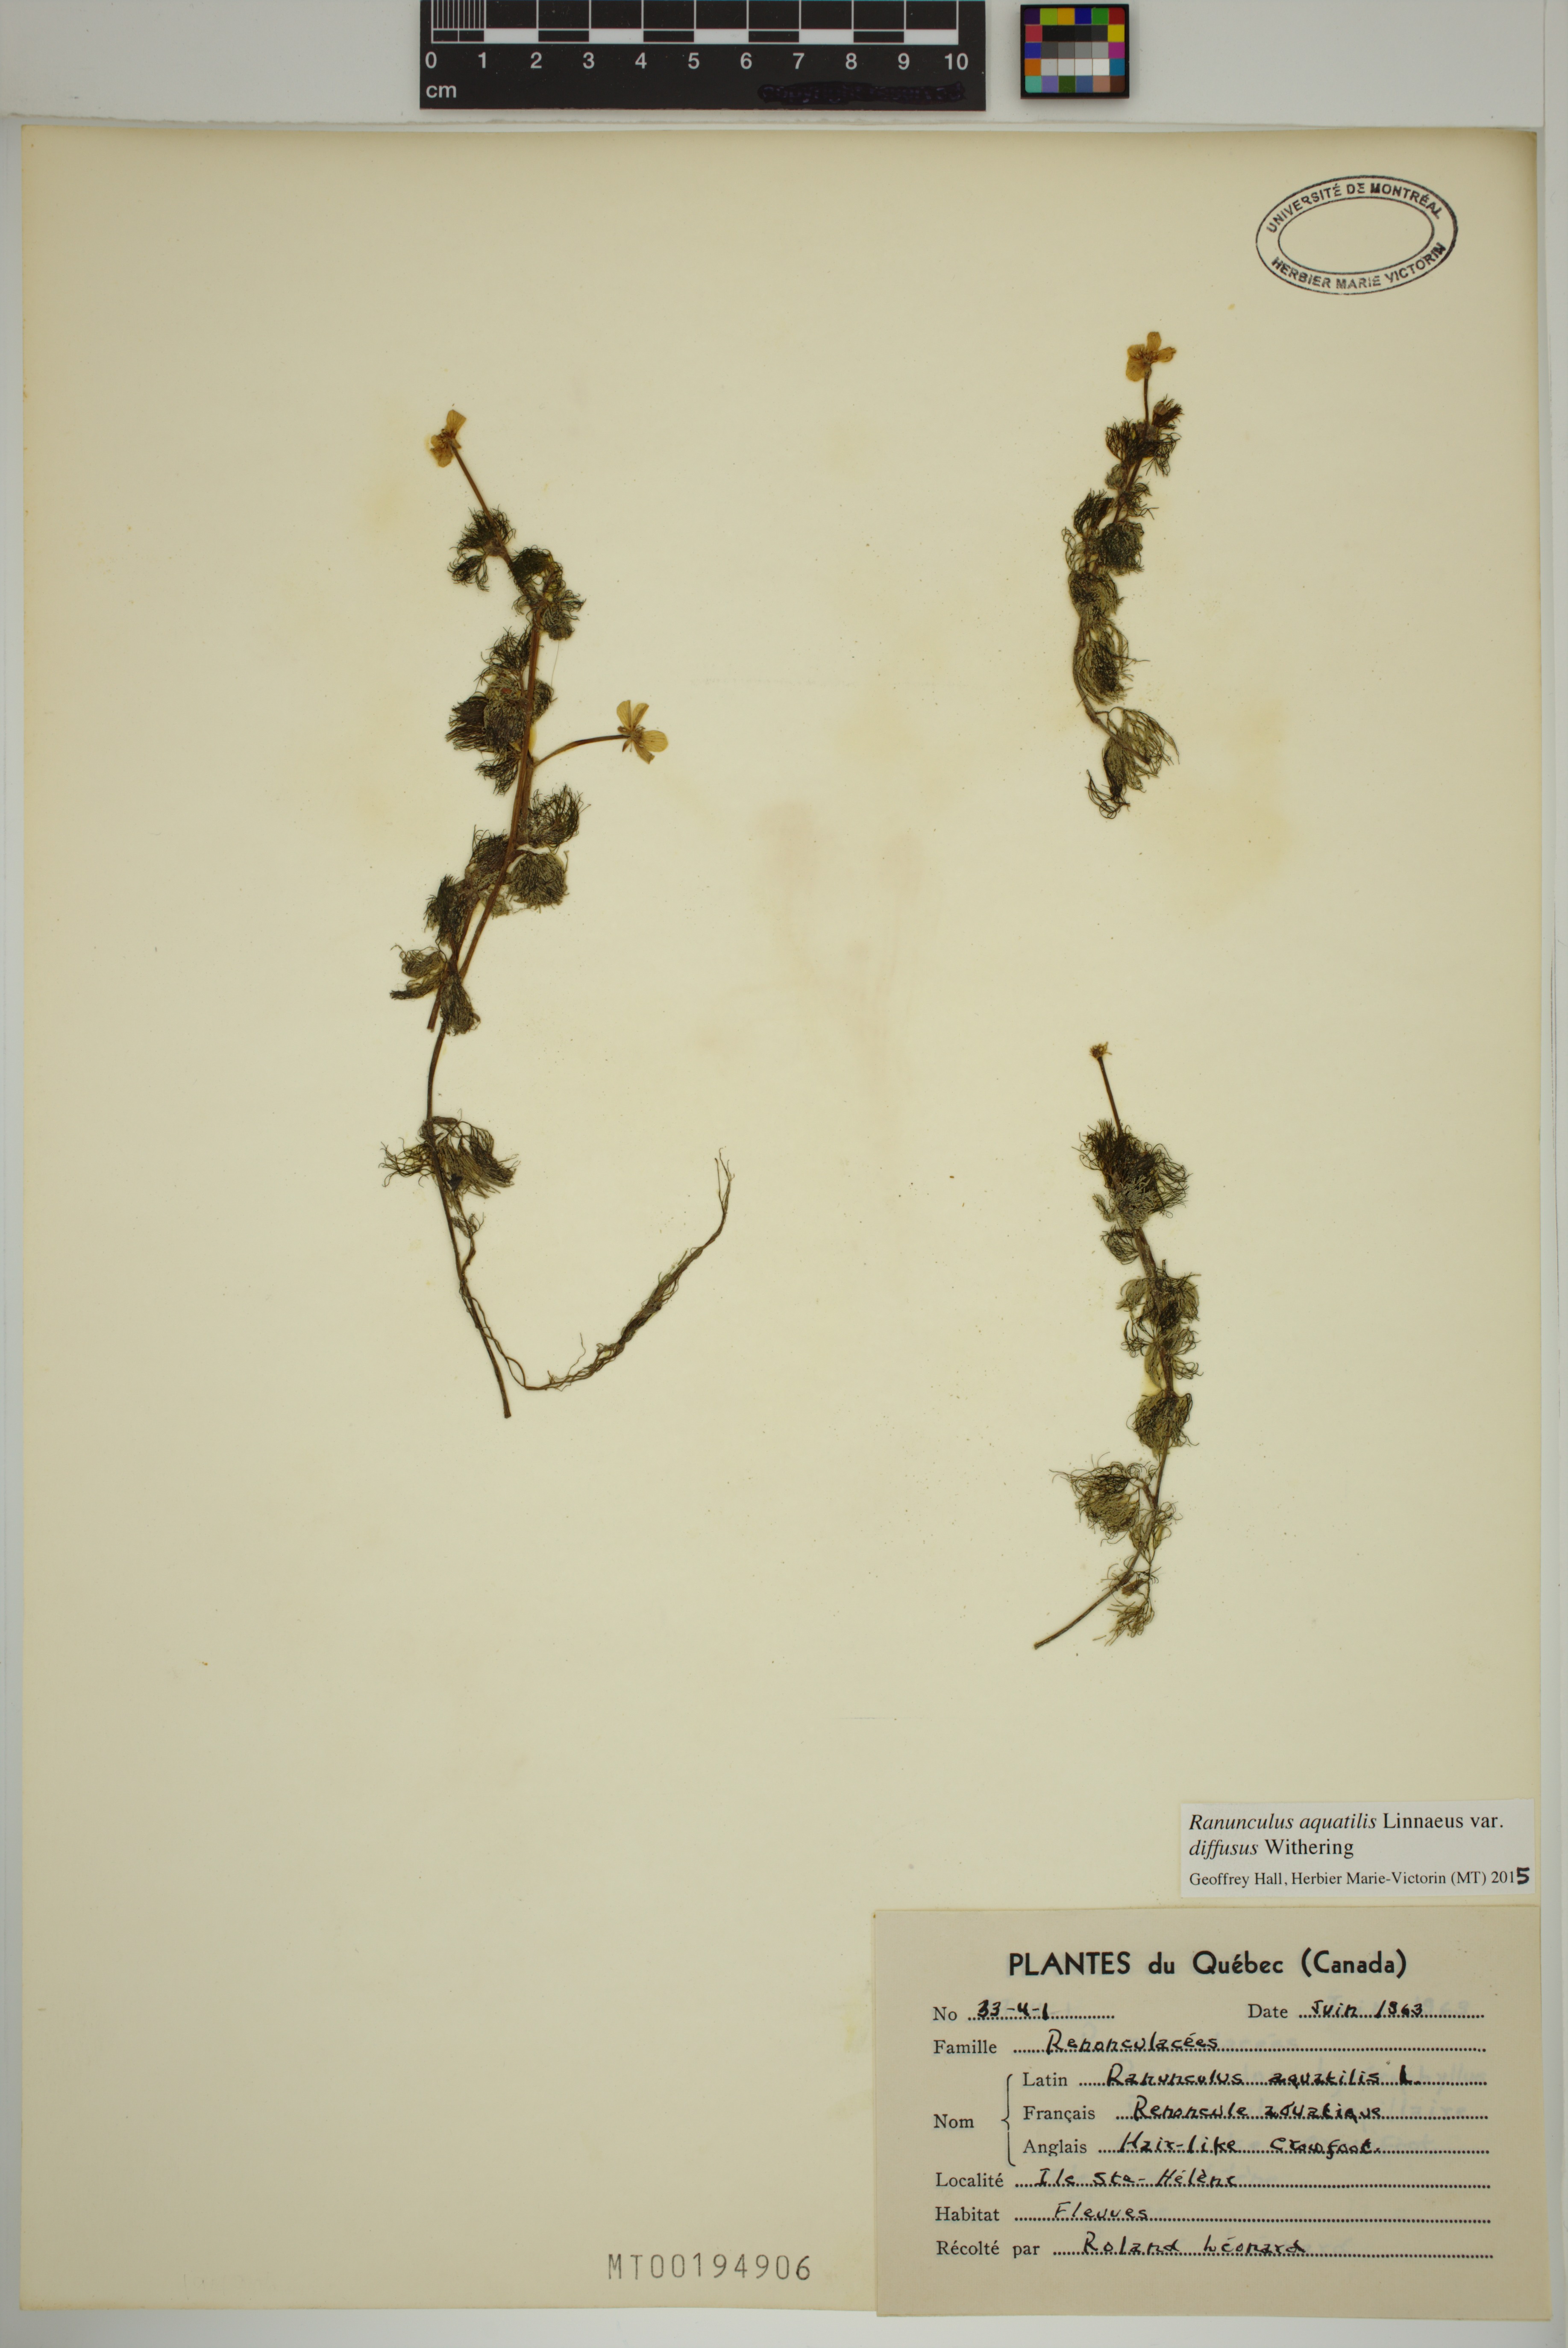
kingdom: Plantae
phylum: Tracheophyta
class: Magnoliopsida
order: Ranunculales
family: Ranunculaceae
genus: Ranunculus
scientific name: Ranunculus trichophyllus
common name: Thread-leaved water-crowfoot
